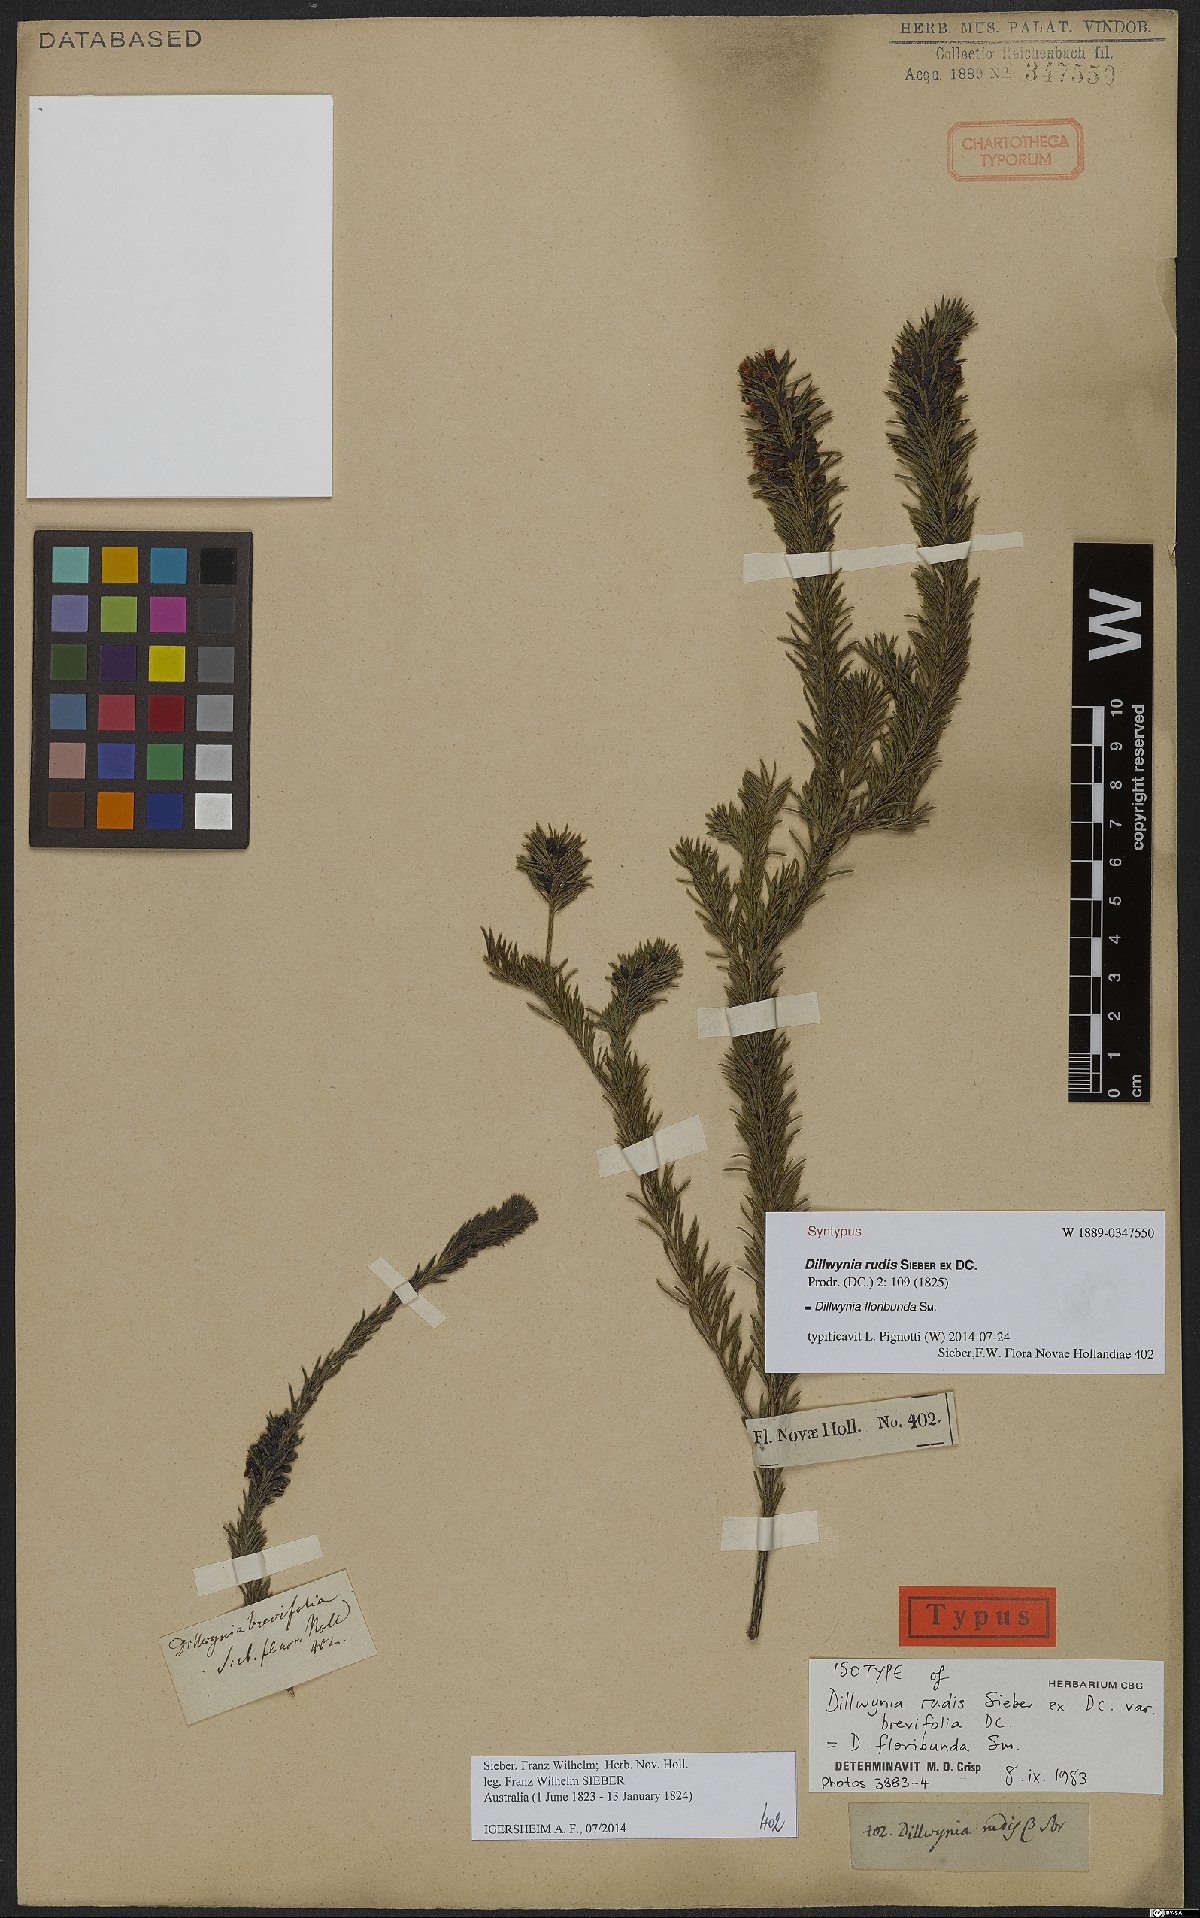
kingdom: Plantae
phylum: Tracheophyta
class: Magnoliopsida
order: Fabales
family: Fabaceae
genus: Dillwynia
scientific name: Dillwynia floribunda
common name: Eggs-and-bacon
